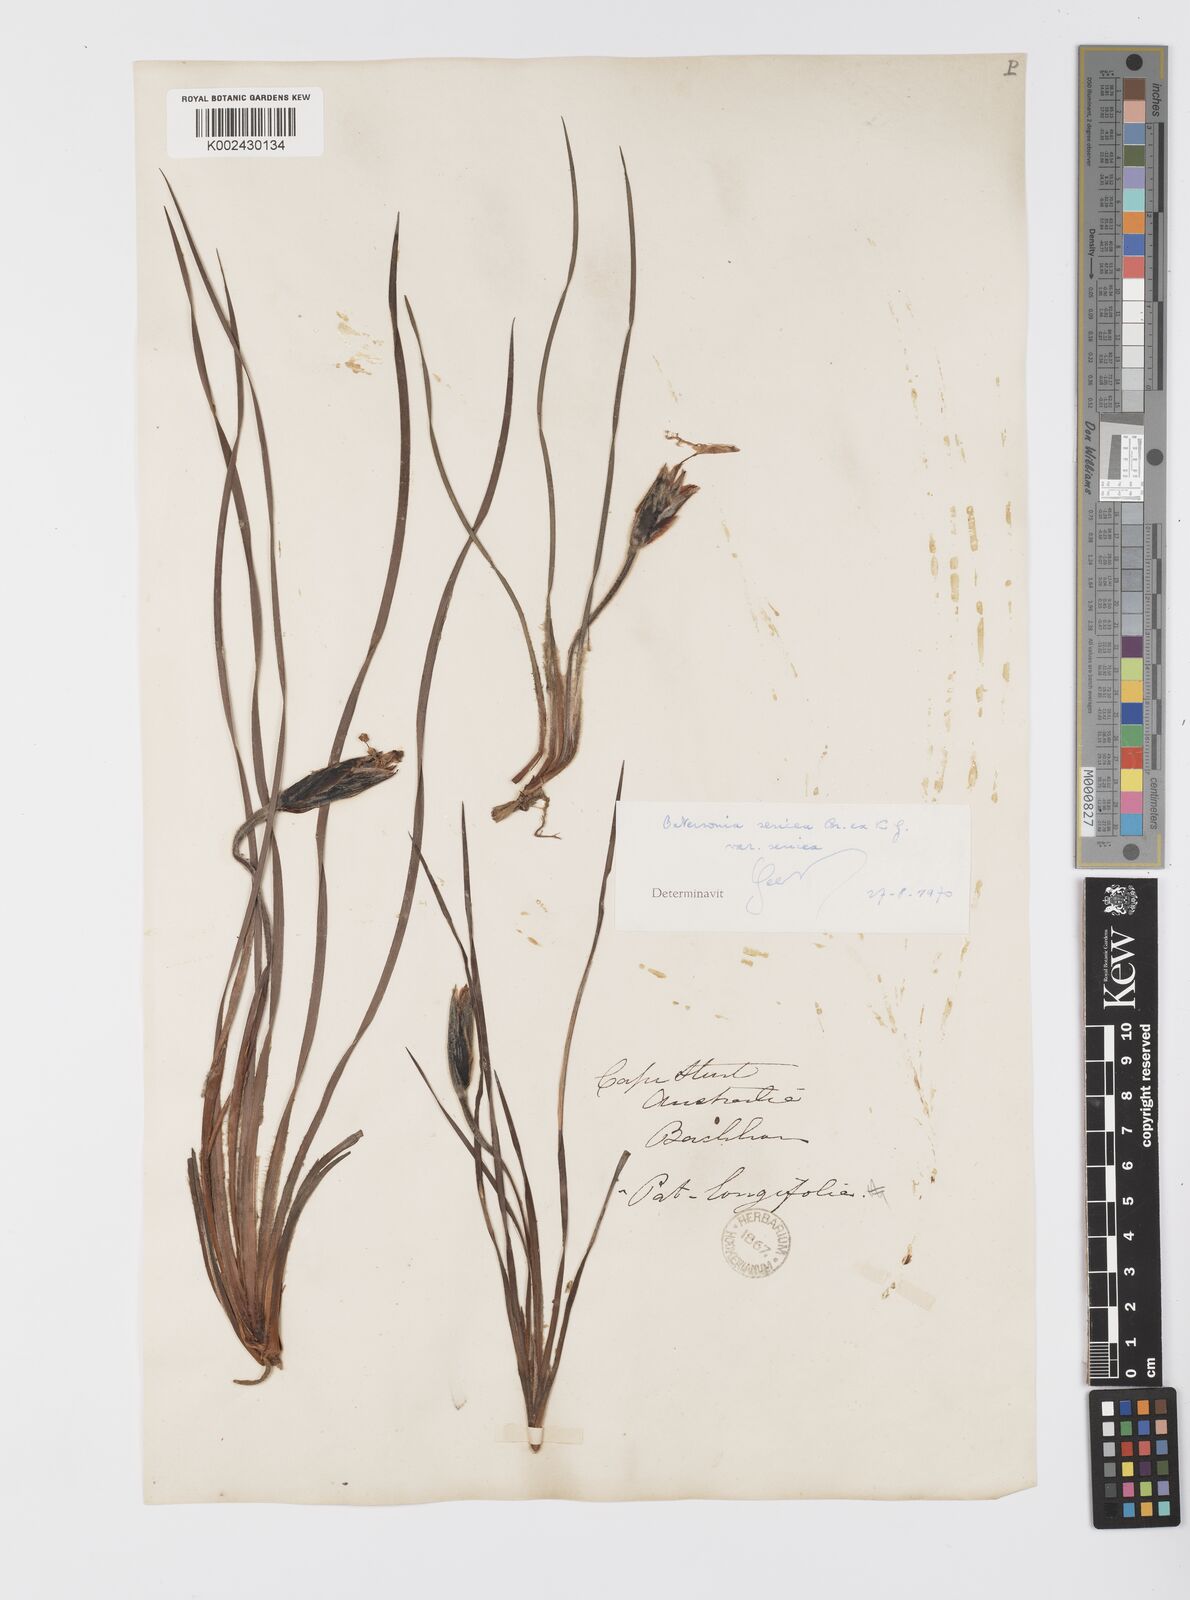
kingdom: Plantae
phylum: Tracheophyta
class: Liliopsida
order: Asparagales
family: Iridaceae
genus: Patersonia
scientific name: Patersonia sericea
